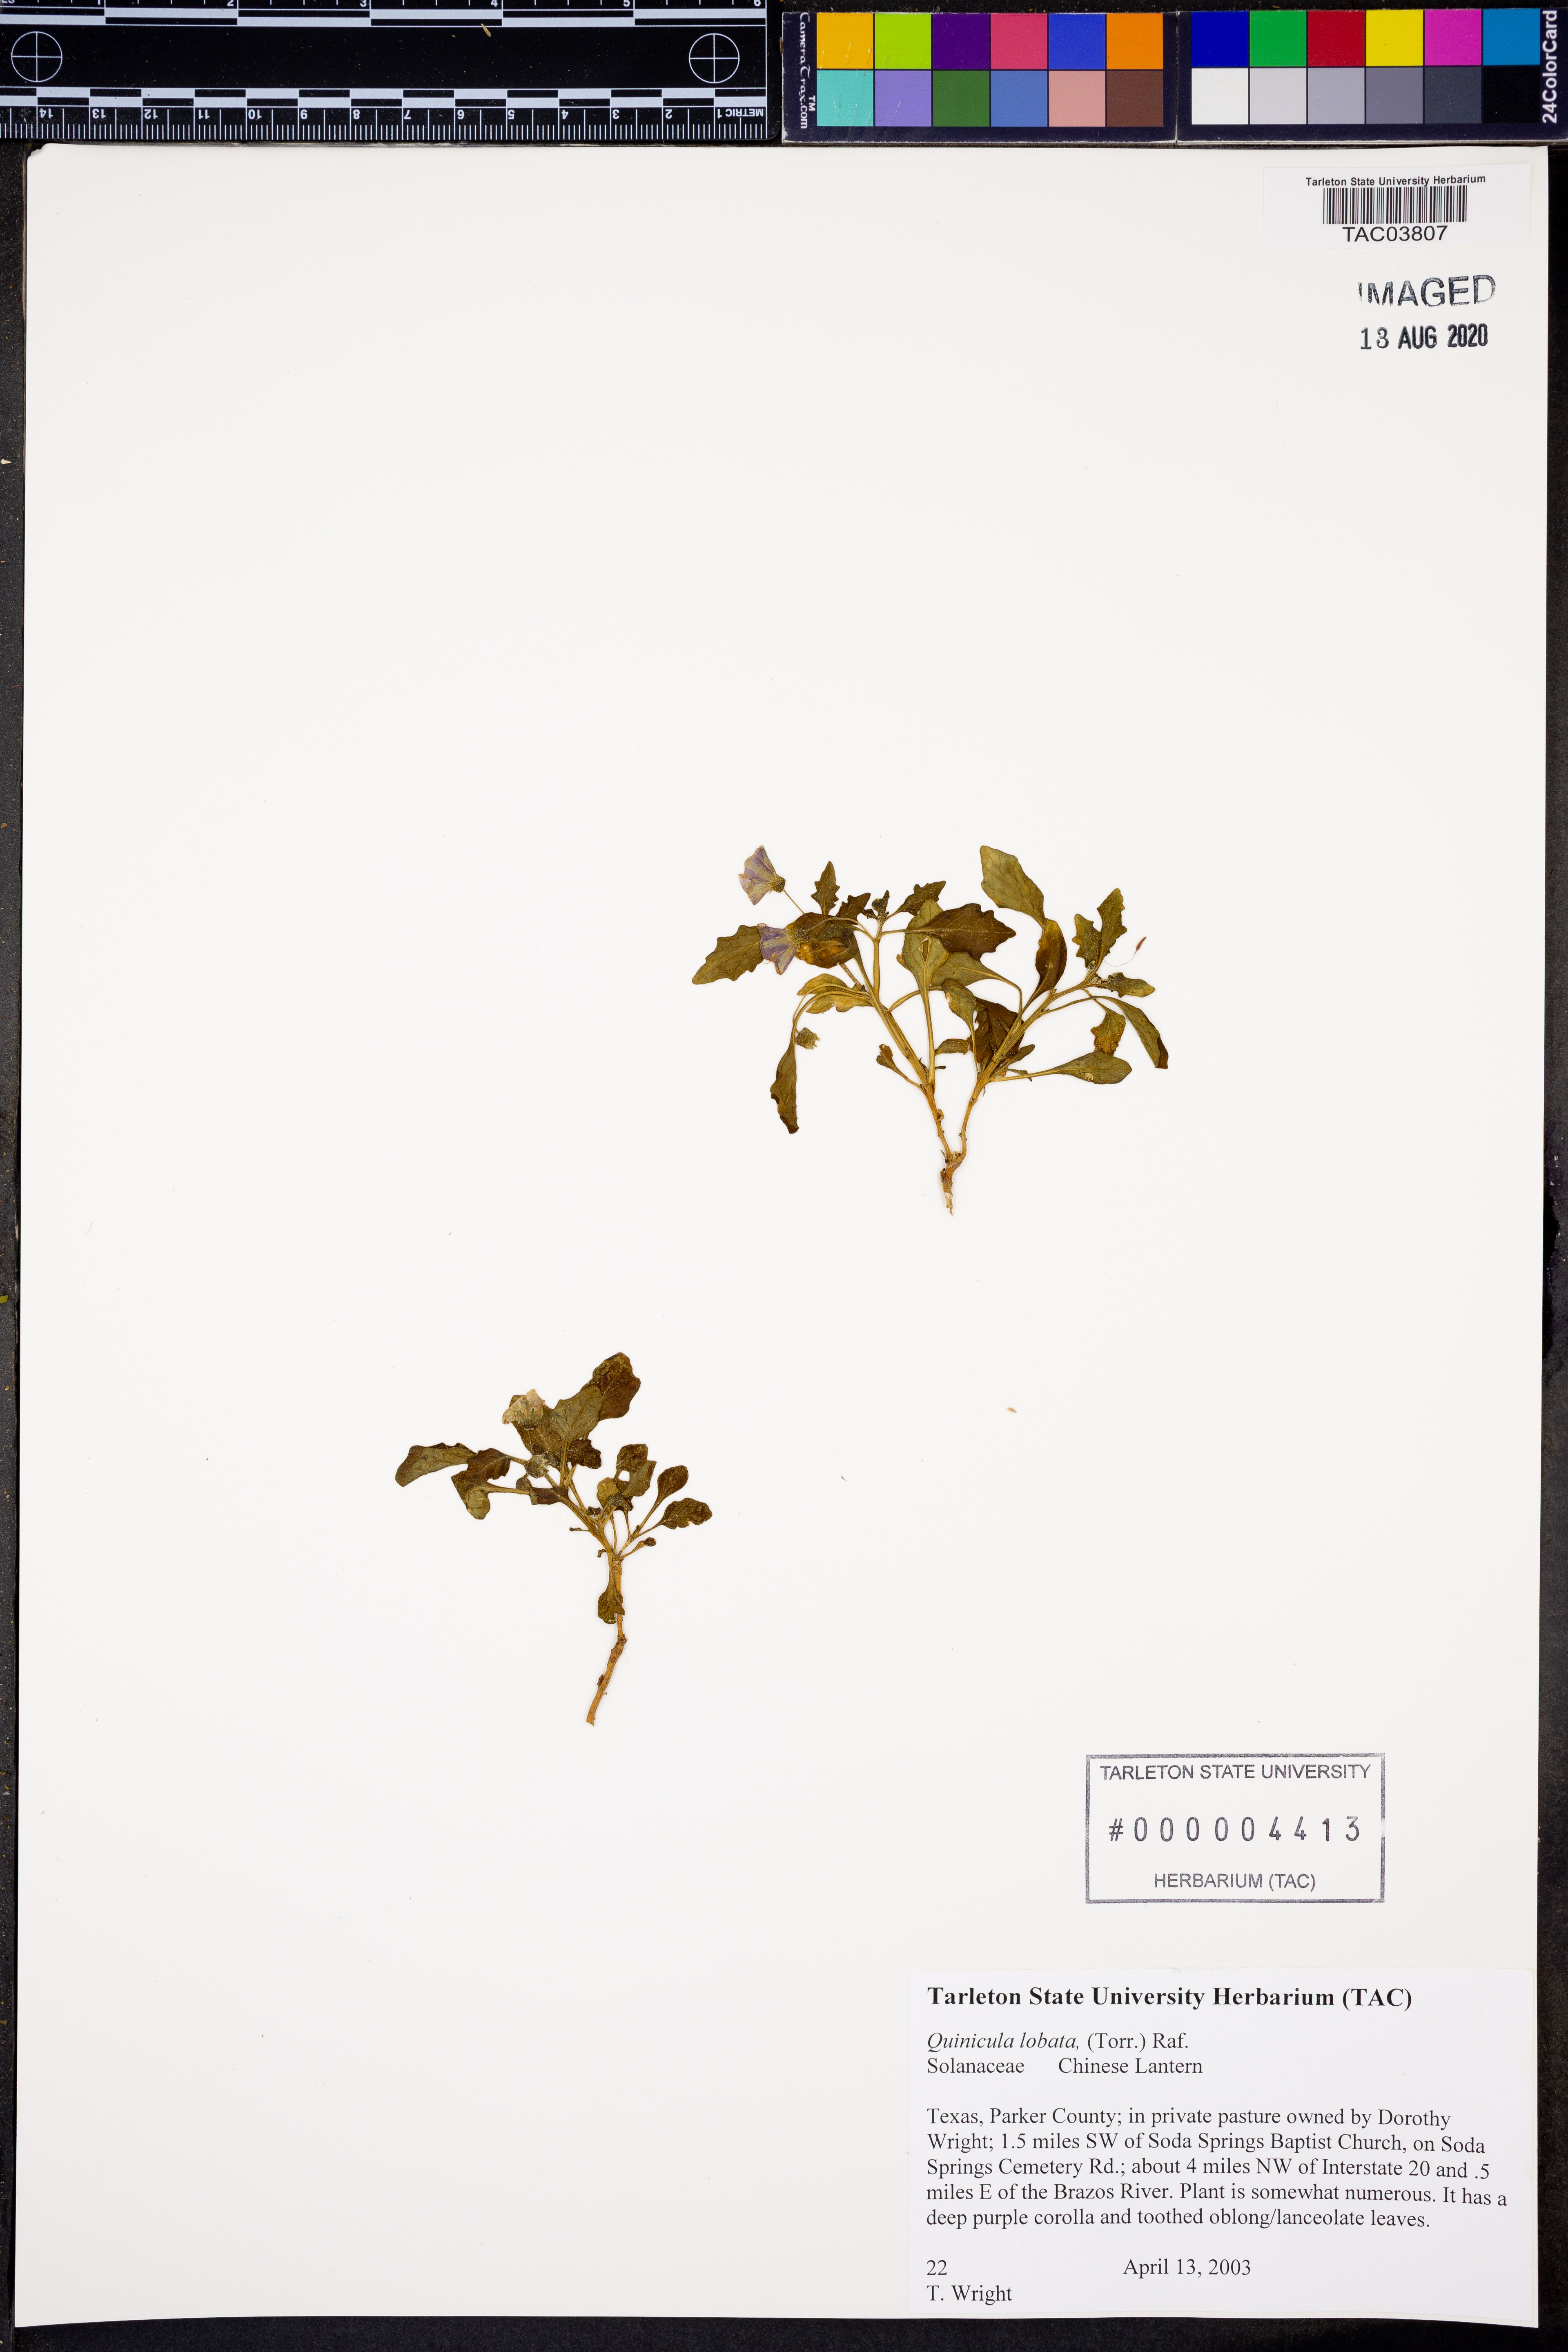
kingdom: Plantae
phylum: Tracheophyta
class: Magnoliopsida
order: Solanales
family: Solanaceae
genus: Quincula
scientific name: Quincula lobata
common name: Purple-ground-cherry
